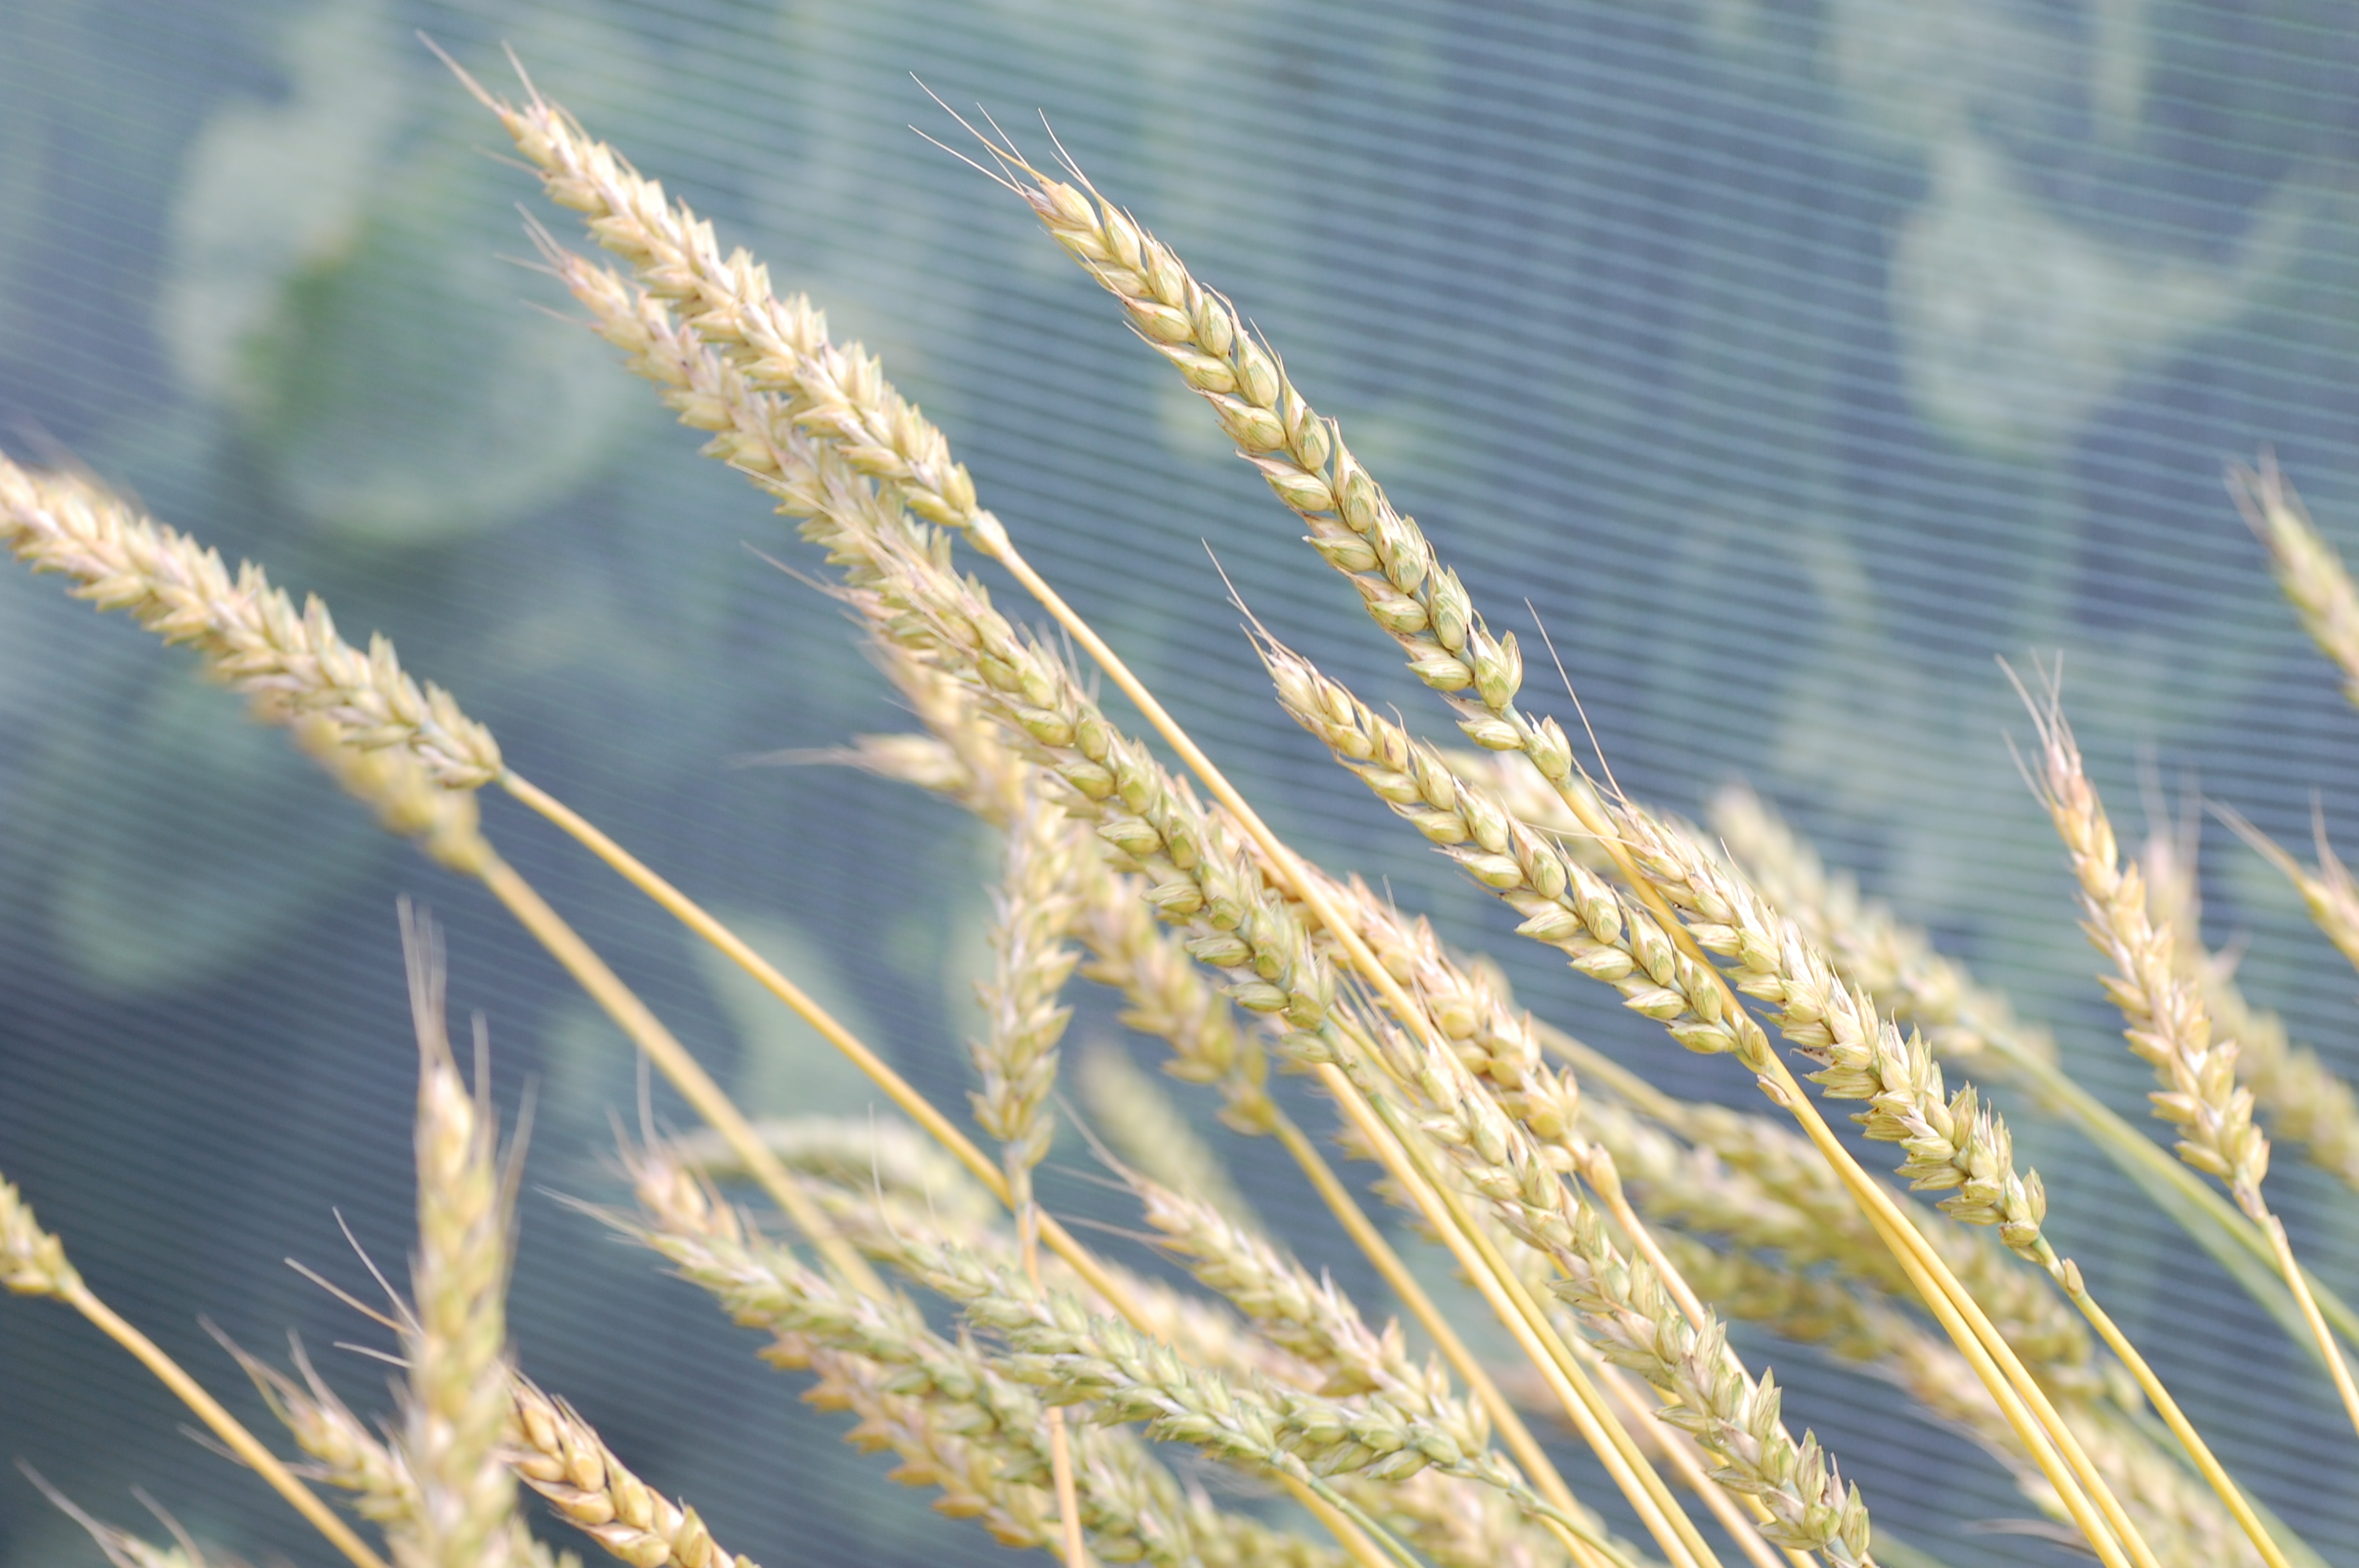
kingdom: Plantae
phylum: Tracheophyta
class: Liliopsida
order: Poales
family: Poaceae
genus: Triticum
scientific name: Triticum aestivum
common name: Common wheat
